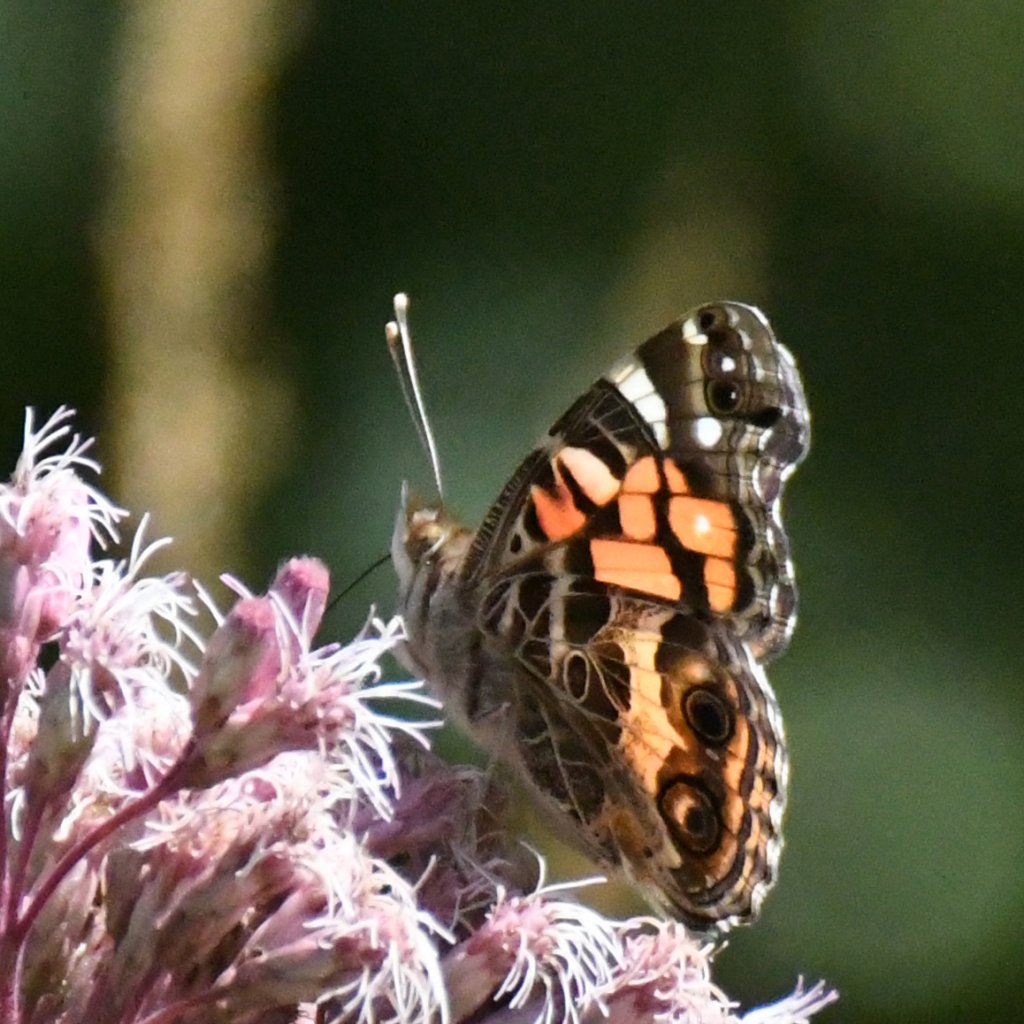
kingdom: Animalia
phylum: Arthropoda
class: Insecta
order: Lepidoptera
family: Nymphalidae
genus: Vanessa
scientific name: Vanessa virginiensis
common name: American Lady
